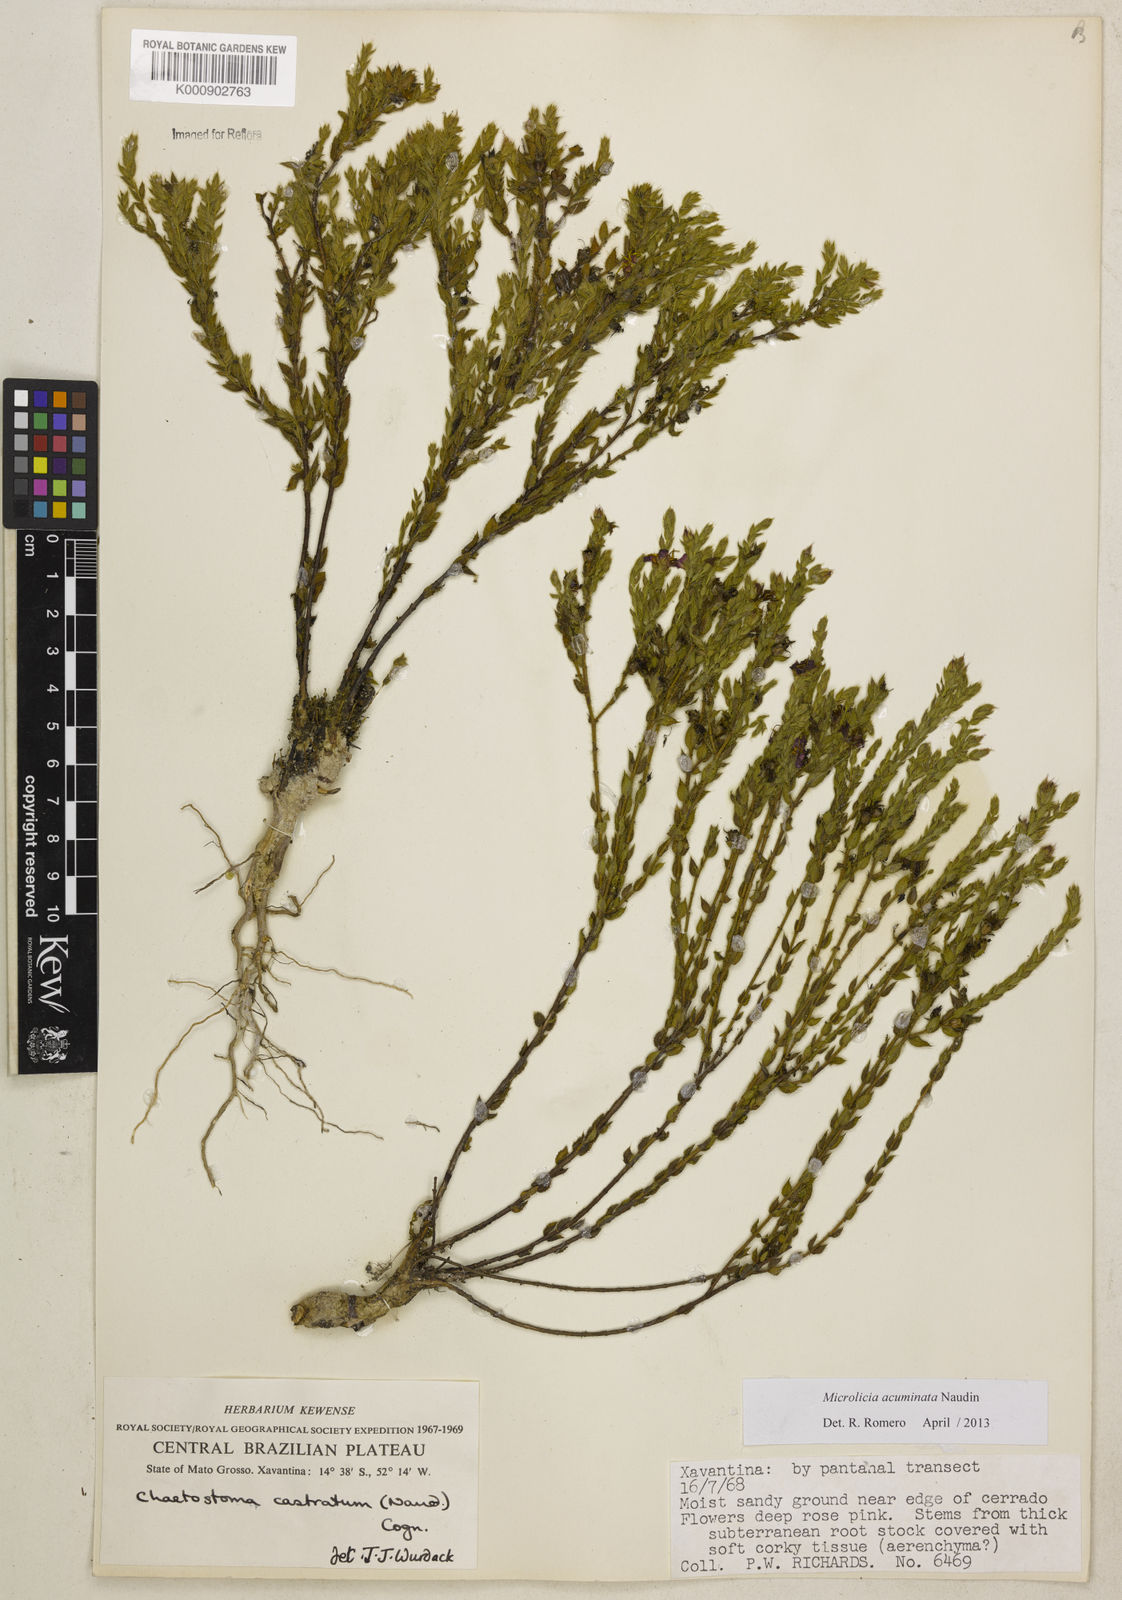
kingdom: Plantae
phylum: Tracheophyta
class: Magnoliopsida
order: Myrtales
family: Melastomataceae
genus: Microlicia
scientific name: Microlicia
